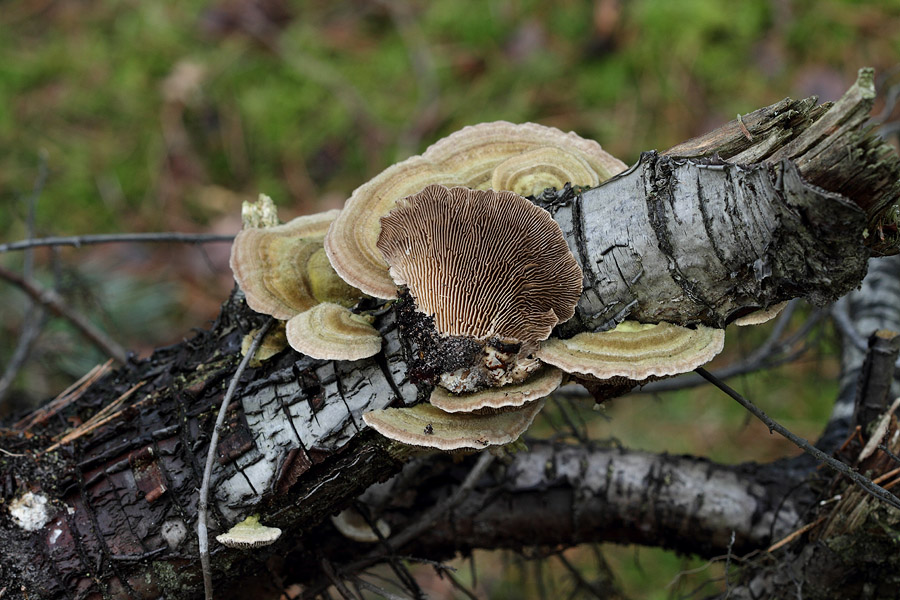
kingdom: Fungi
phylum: Basidiomycota
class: Agaricomycetes
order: Polyporales
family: Polyporaceae
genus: Lenzites
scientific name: Lenzites betulinus
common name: birke-læderporesvamp
